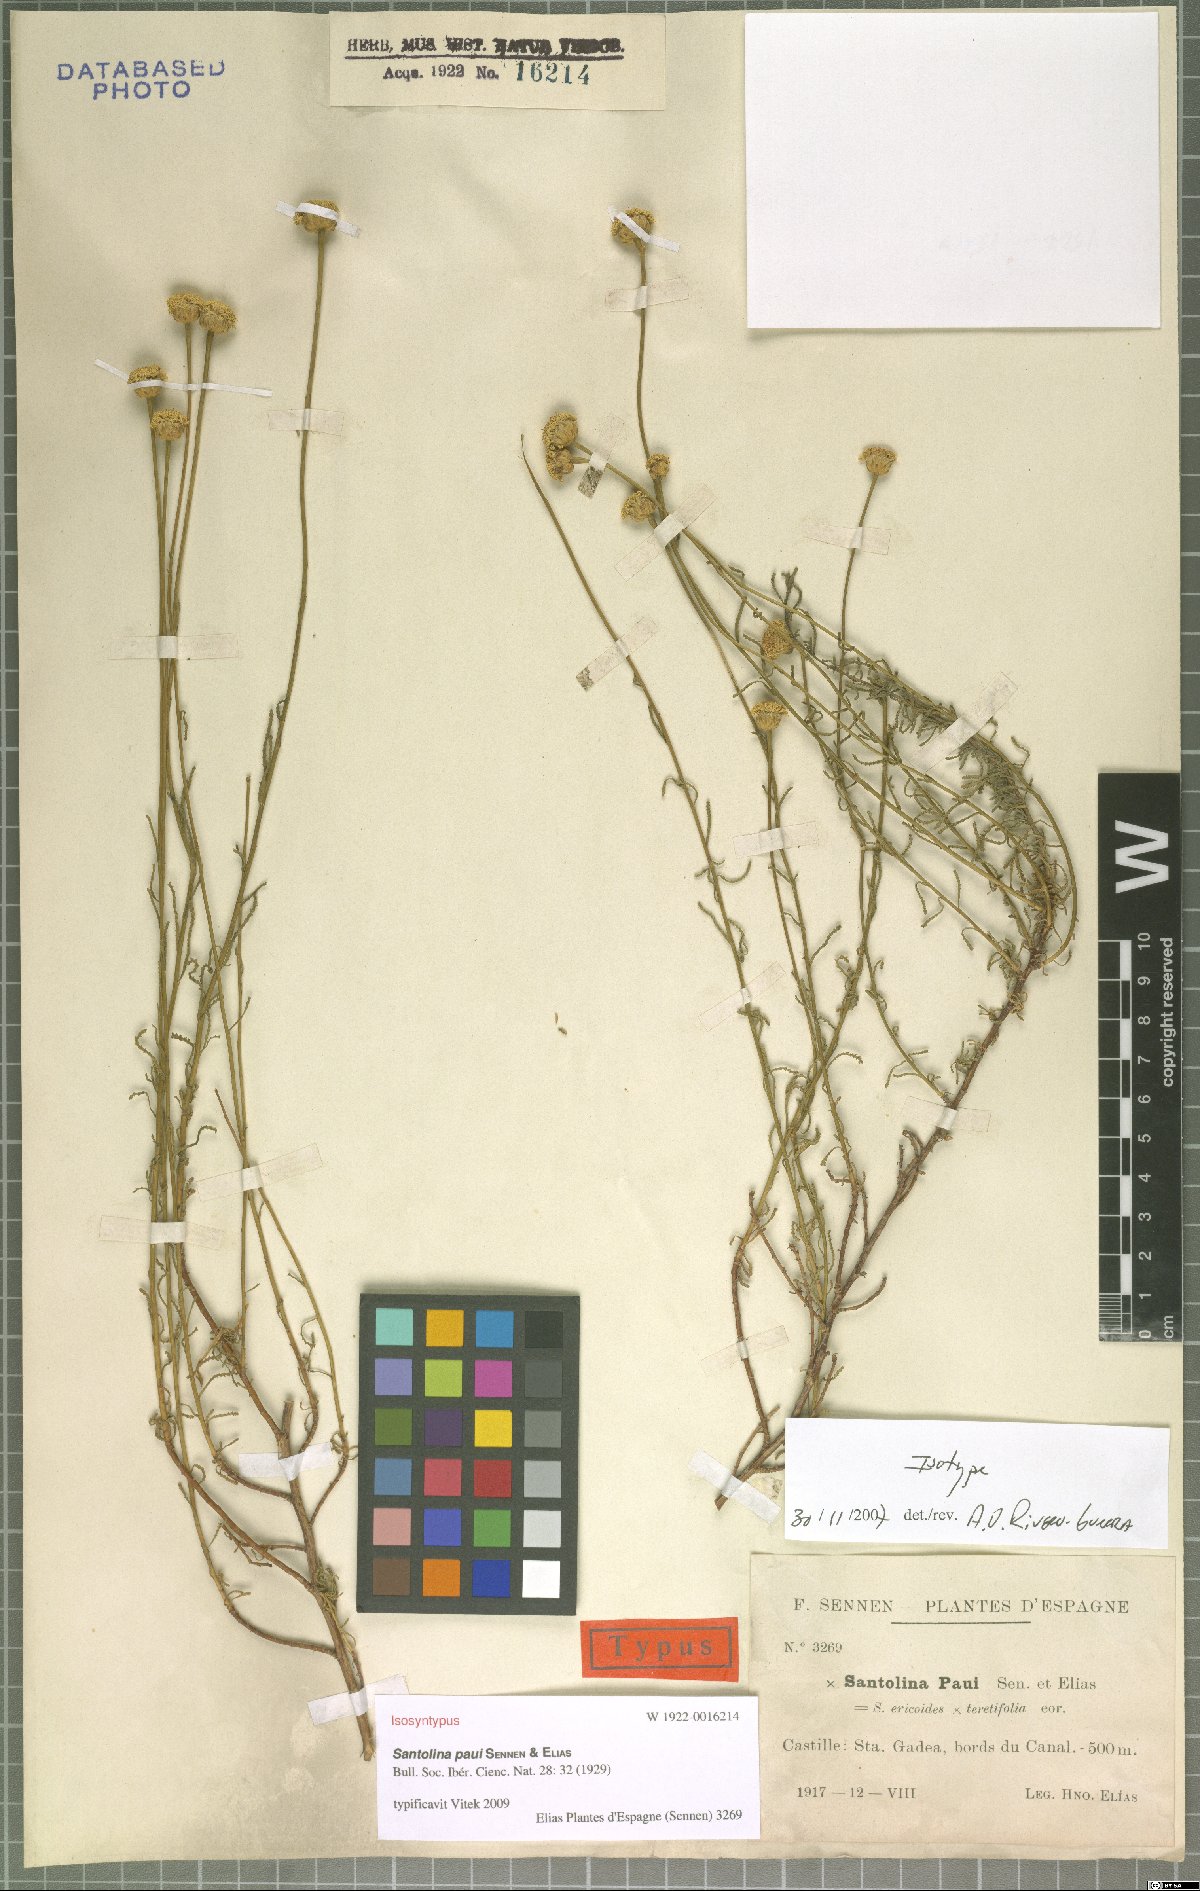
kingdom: Plantae
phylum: Tracheophyta
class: Magnoliopsida
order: Asterales
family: Asteraceae
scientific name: Asteraceae
